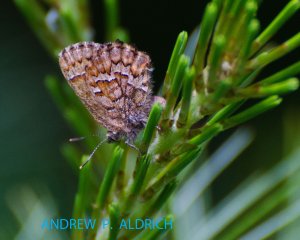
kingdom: Animalia
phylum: Arthropoda
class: Insecta
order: Lepidoptera
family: Lycaenidae
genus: Incisalia
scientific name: Incisalia niphon
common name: Eastern Pine Elfin
